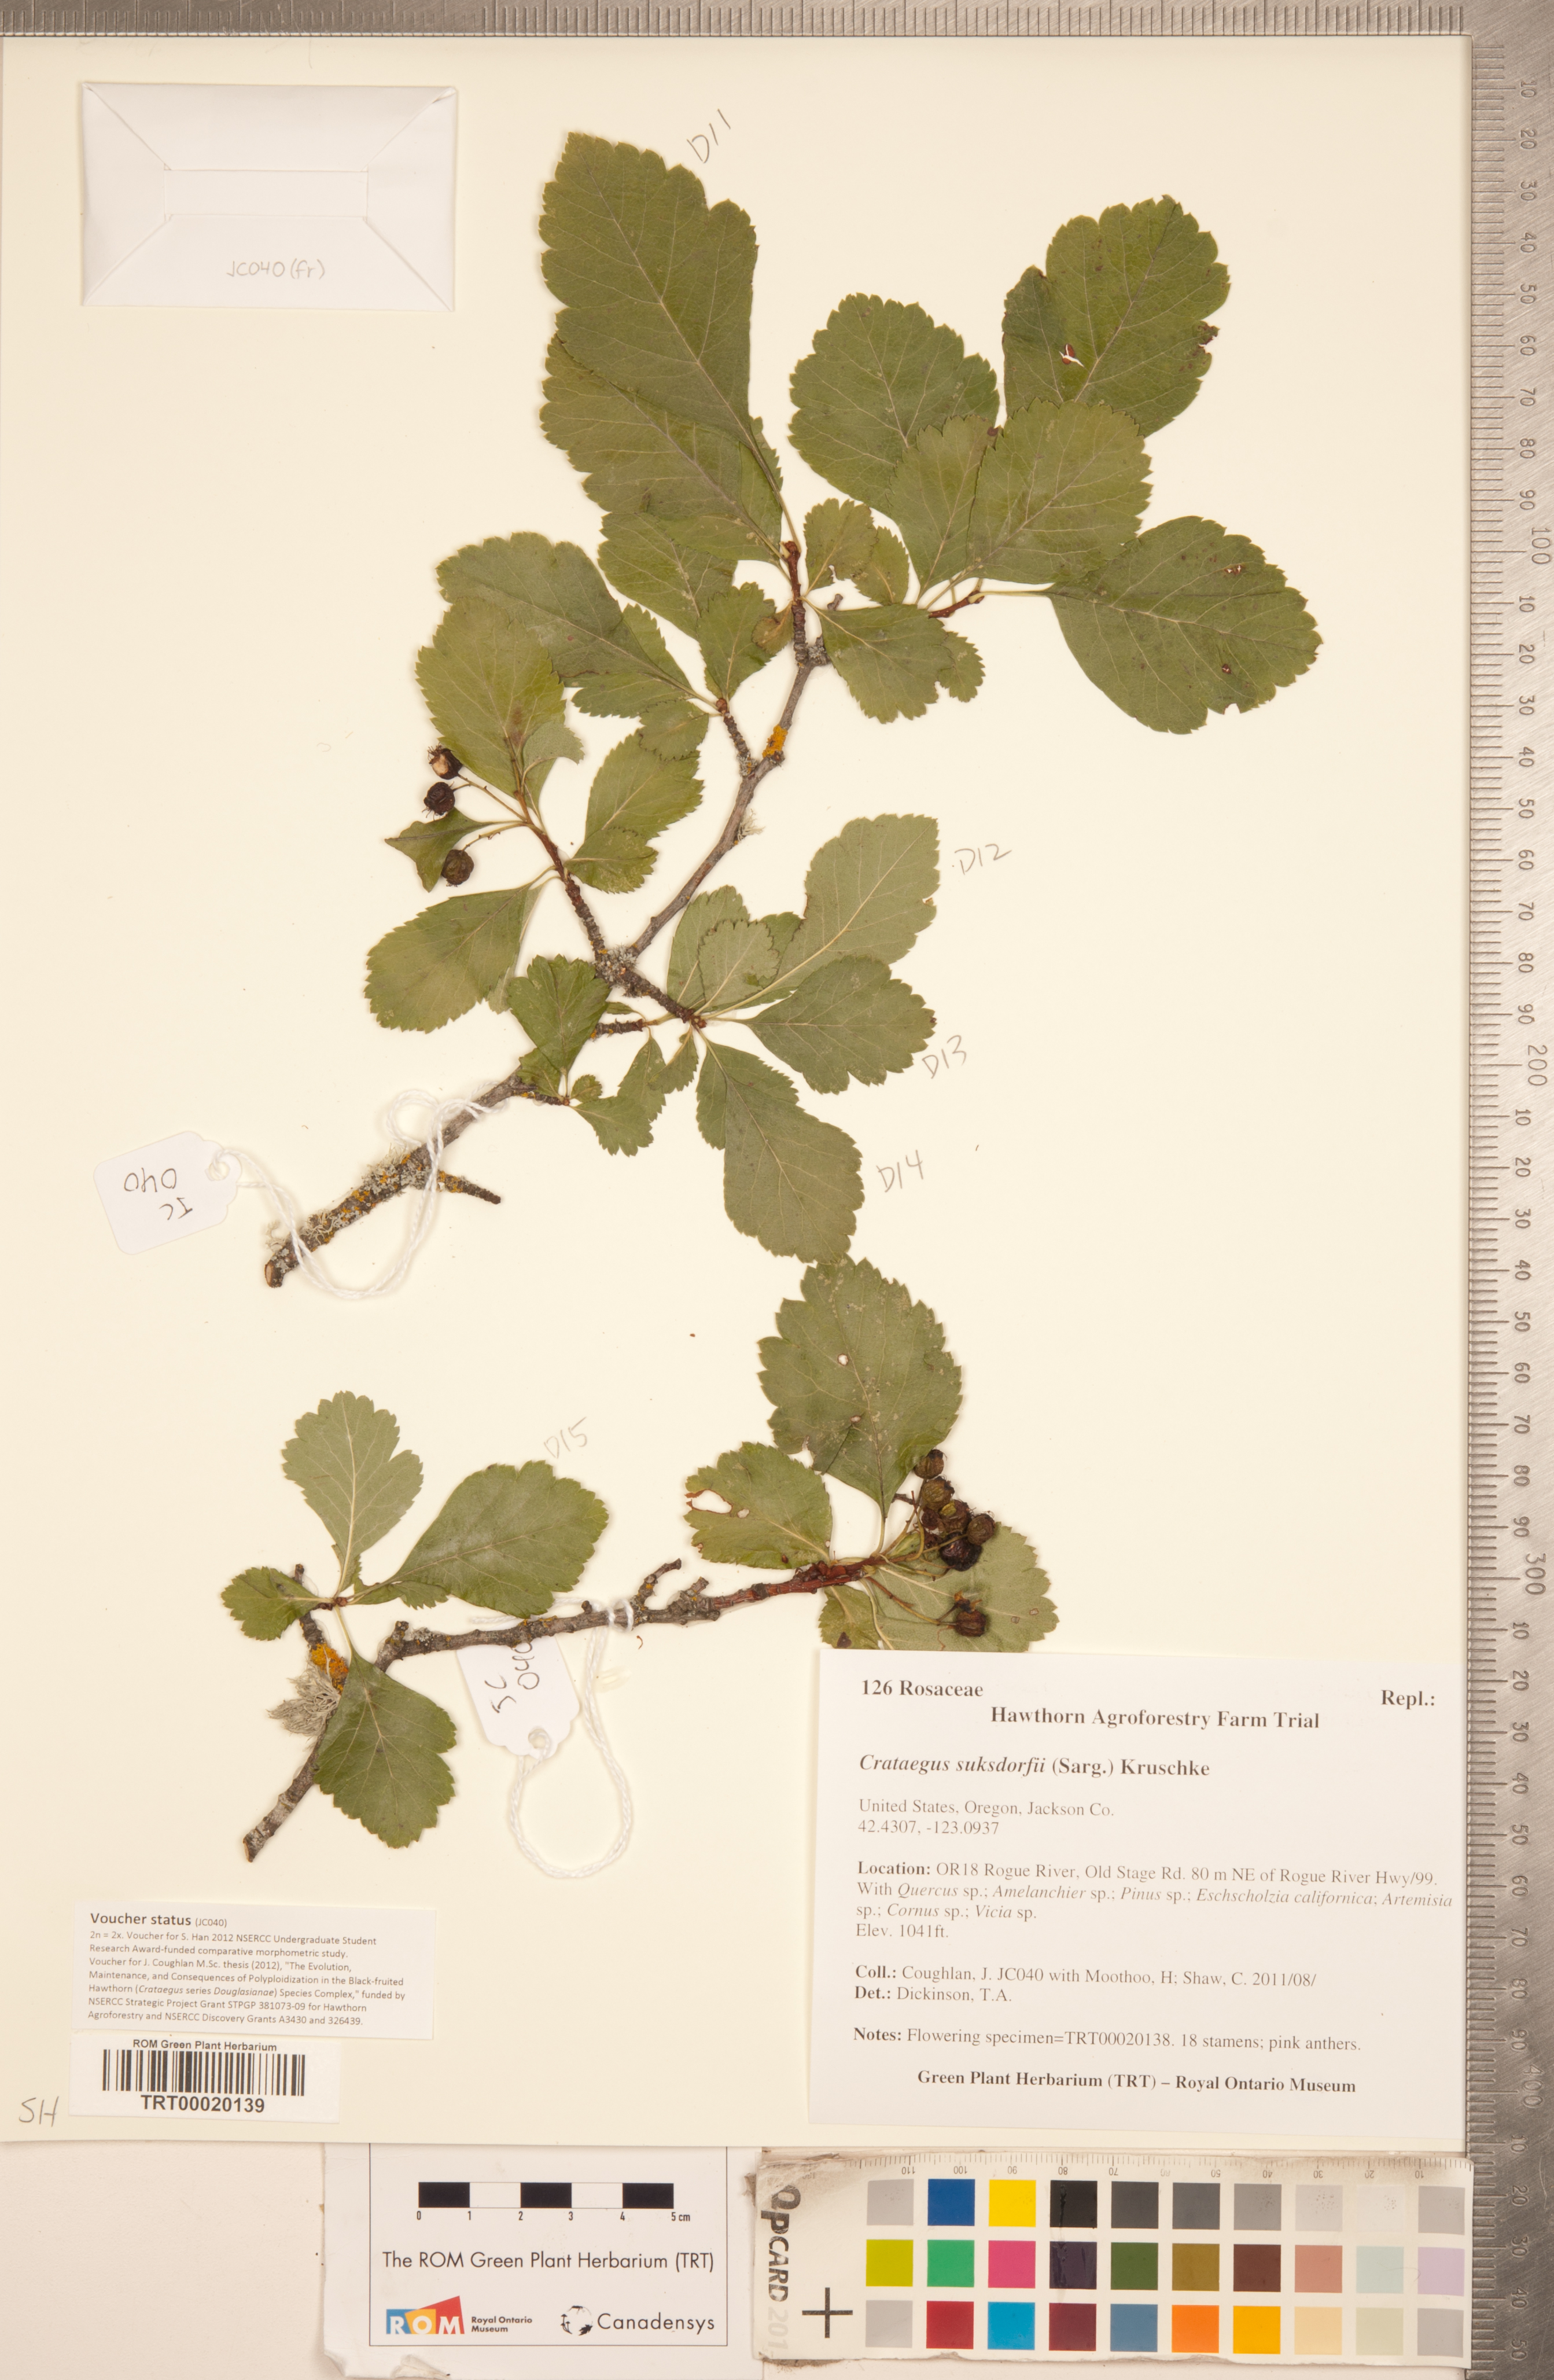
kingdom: Plantae
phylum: Tracheophyta
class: Magnoliopsida
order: Rosales
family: Rosaceae
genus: Crataegus
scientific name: Crataegus gaylussacia
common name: Huckleberry hawthorn
